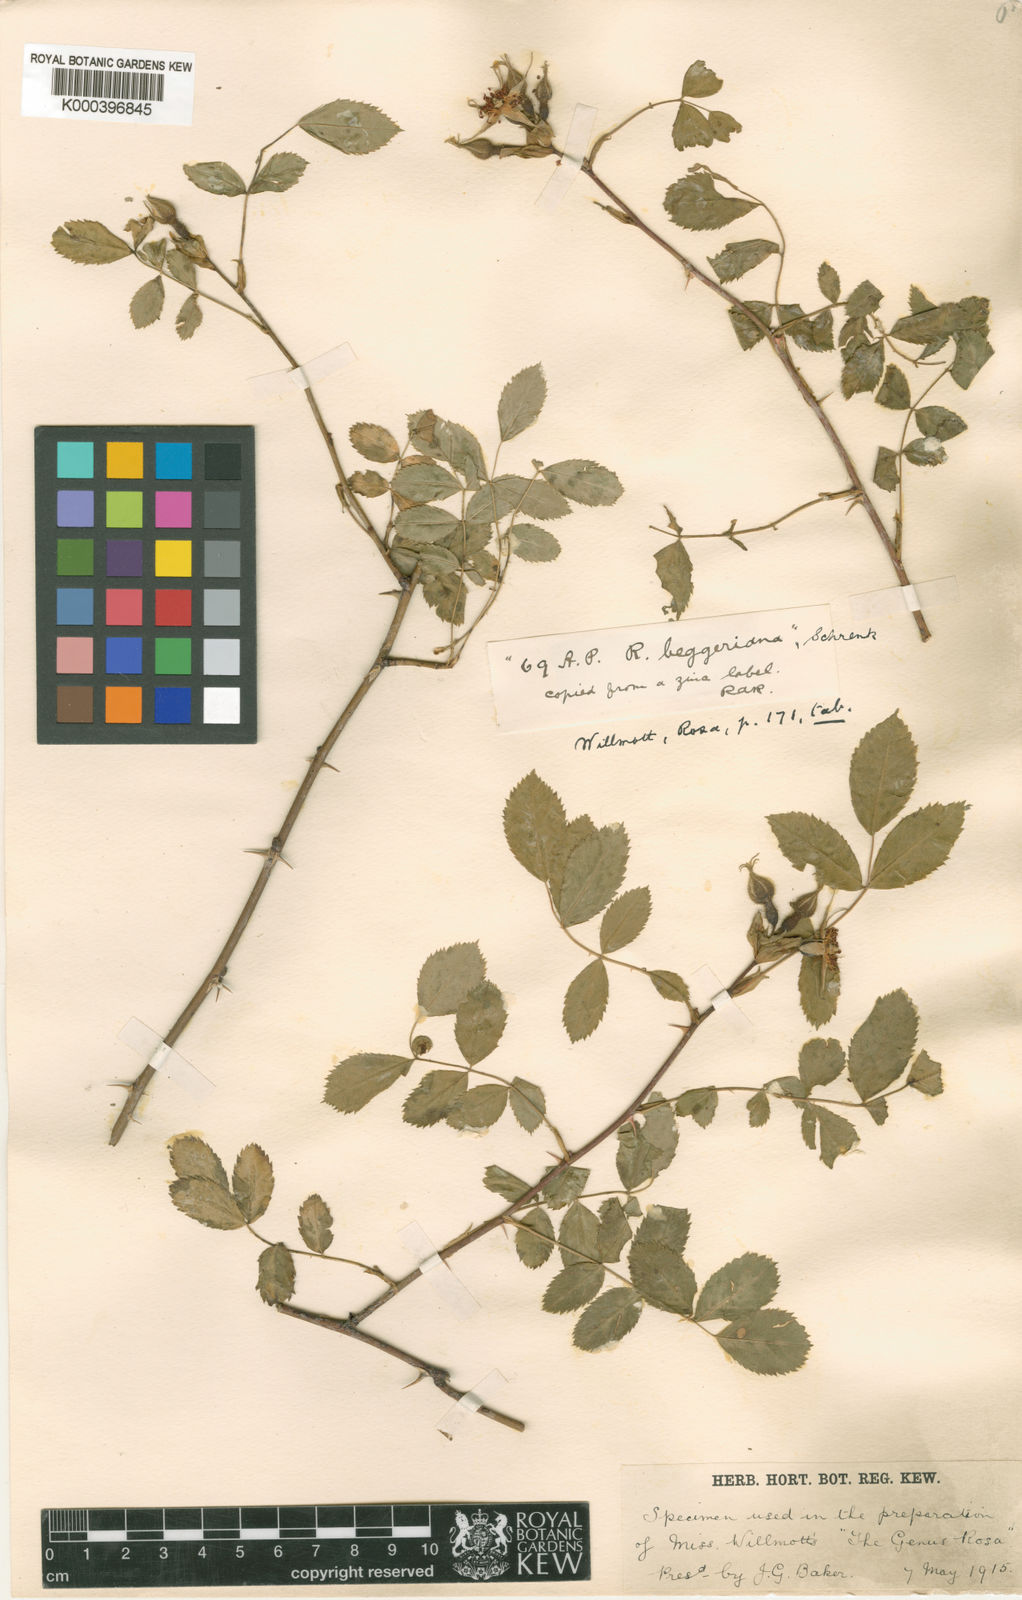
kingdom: Plantae
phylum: Tracheophyta
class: Magnoliopsida
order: Rosales
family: Rosaceae
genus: Rosa
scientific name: Rosa webbiana
